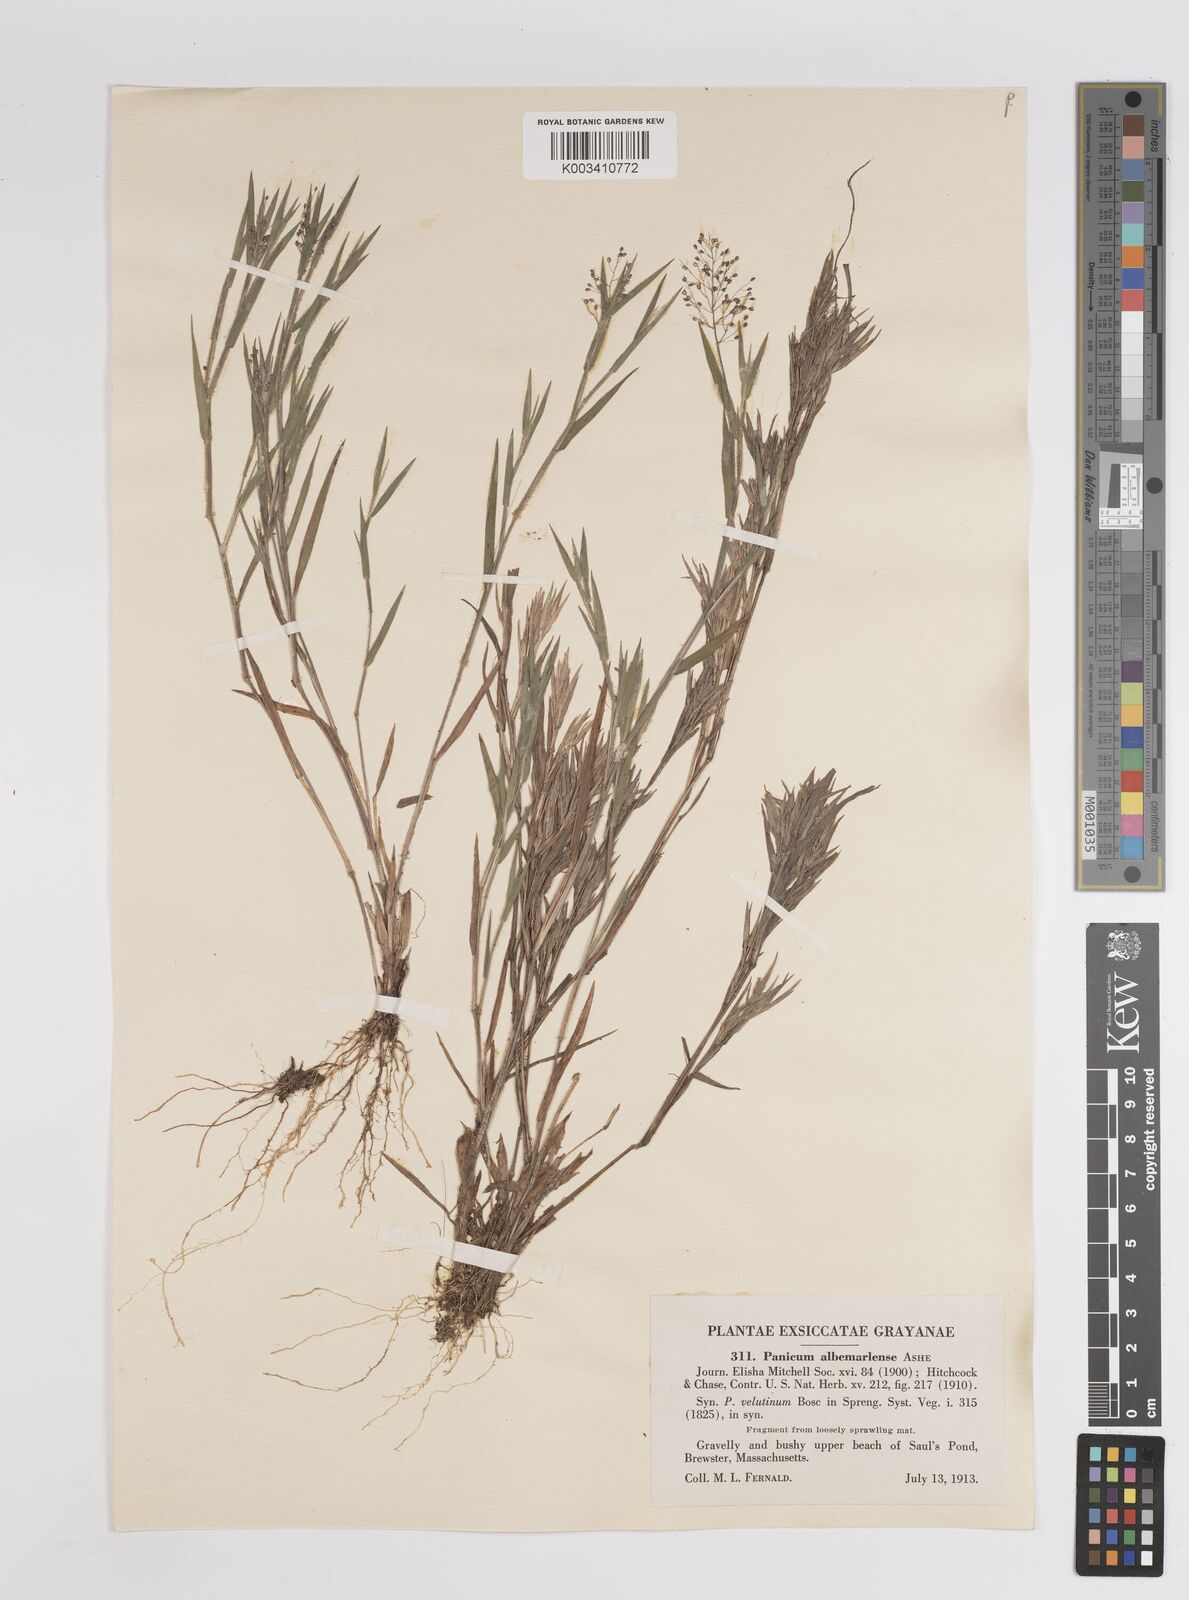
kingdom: Plantae
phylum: Tracheophyta
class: Liliopsida
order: Poales
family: Poaceae
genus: Dichanthelium
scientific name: Dichanthelium meridionale
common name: Mat panicgrass
